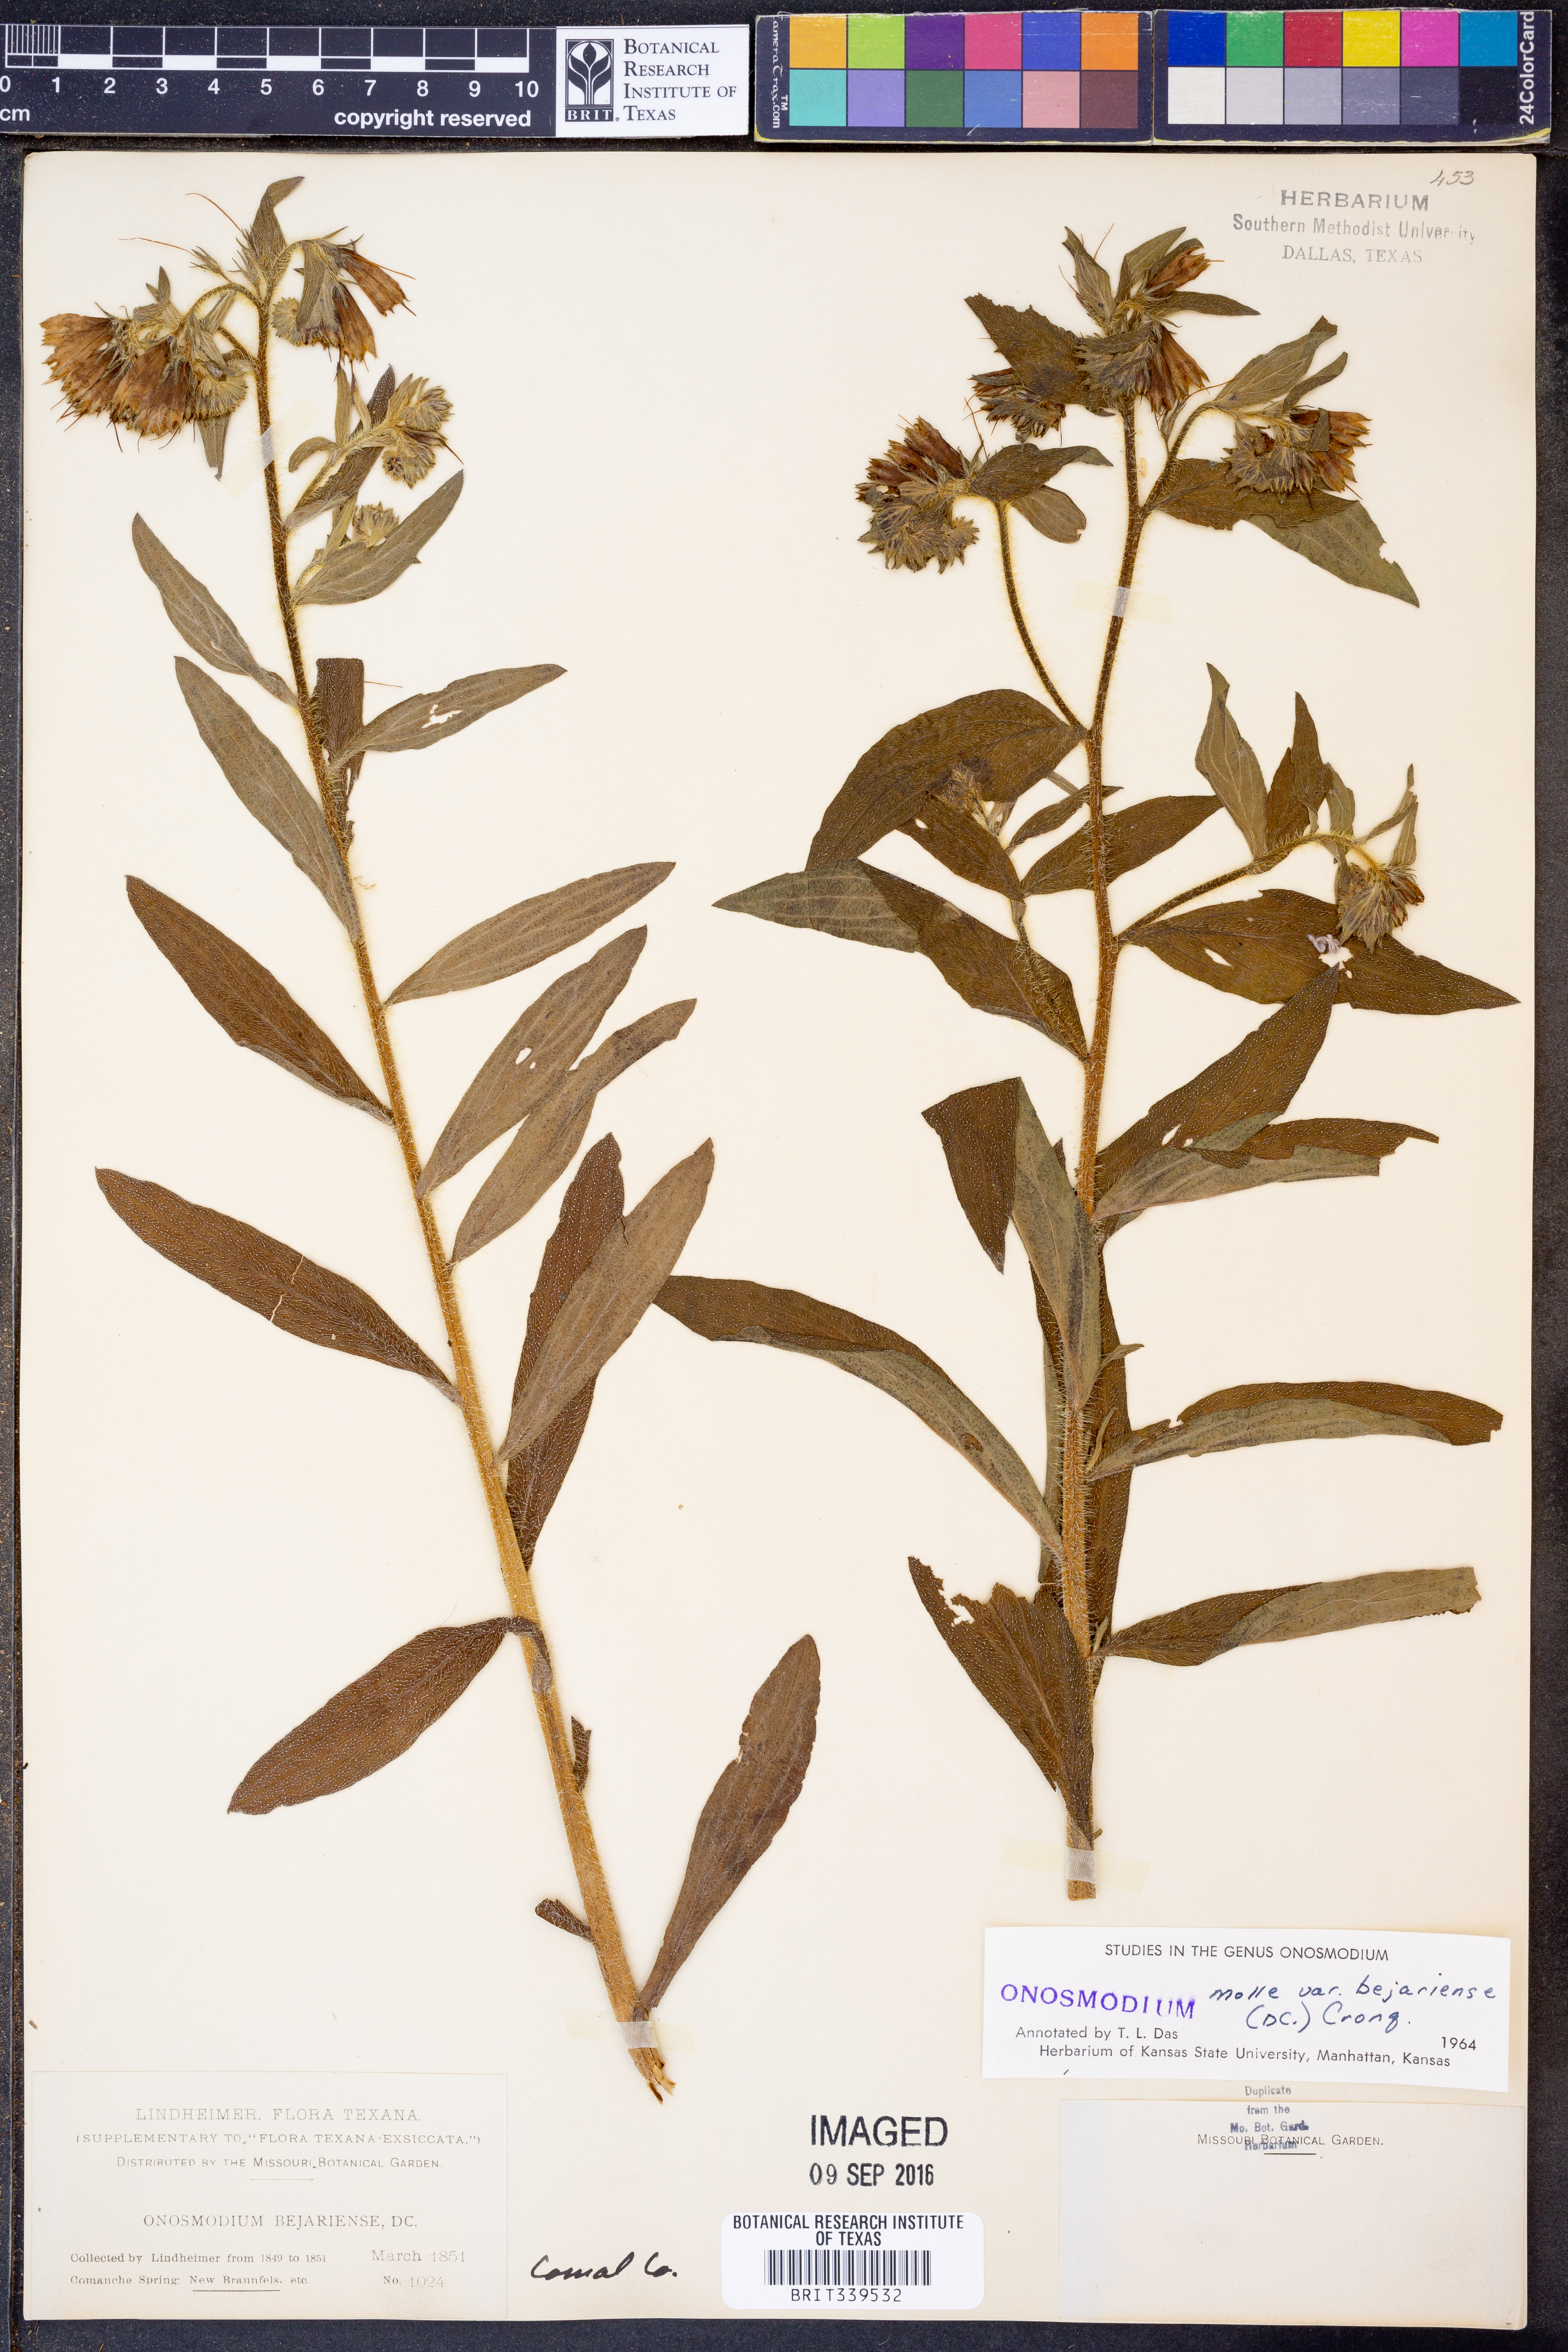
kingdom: Plantae
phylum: Tracheophyta
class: Magnoliopsida
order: Boraginales
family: Boraginaceae
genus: Lithospermum
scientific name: Lithospermum molle
